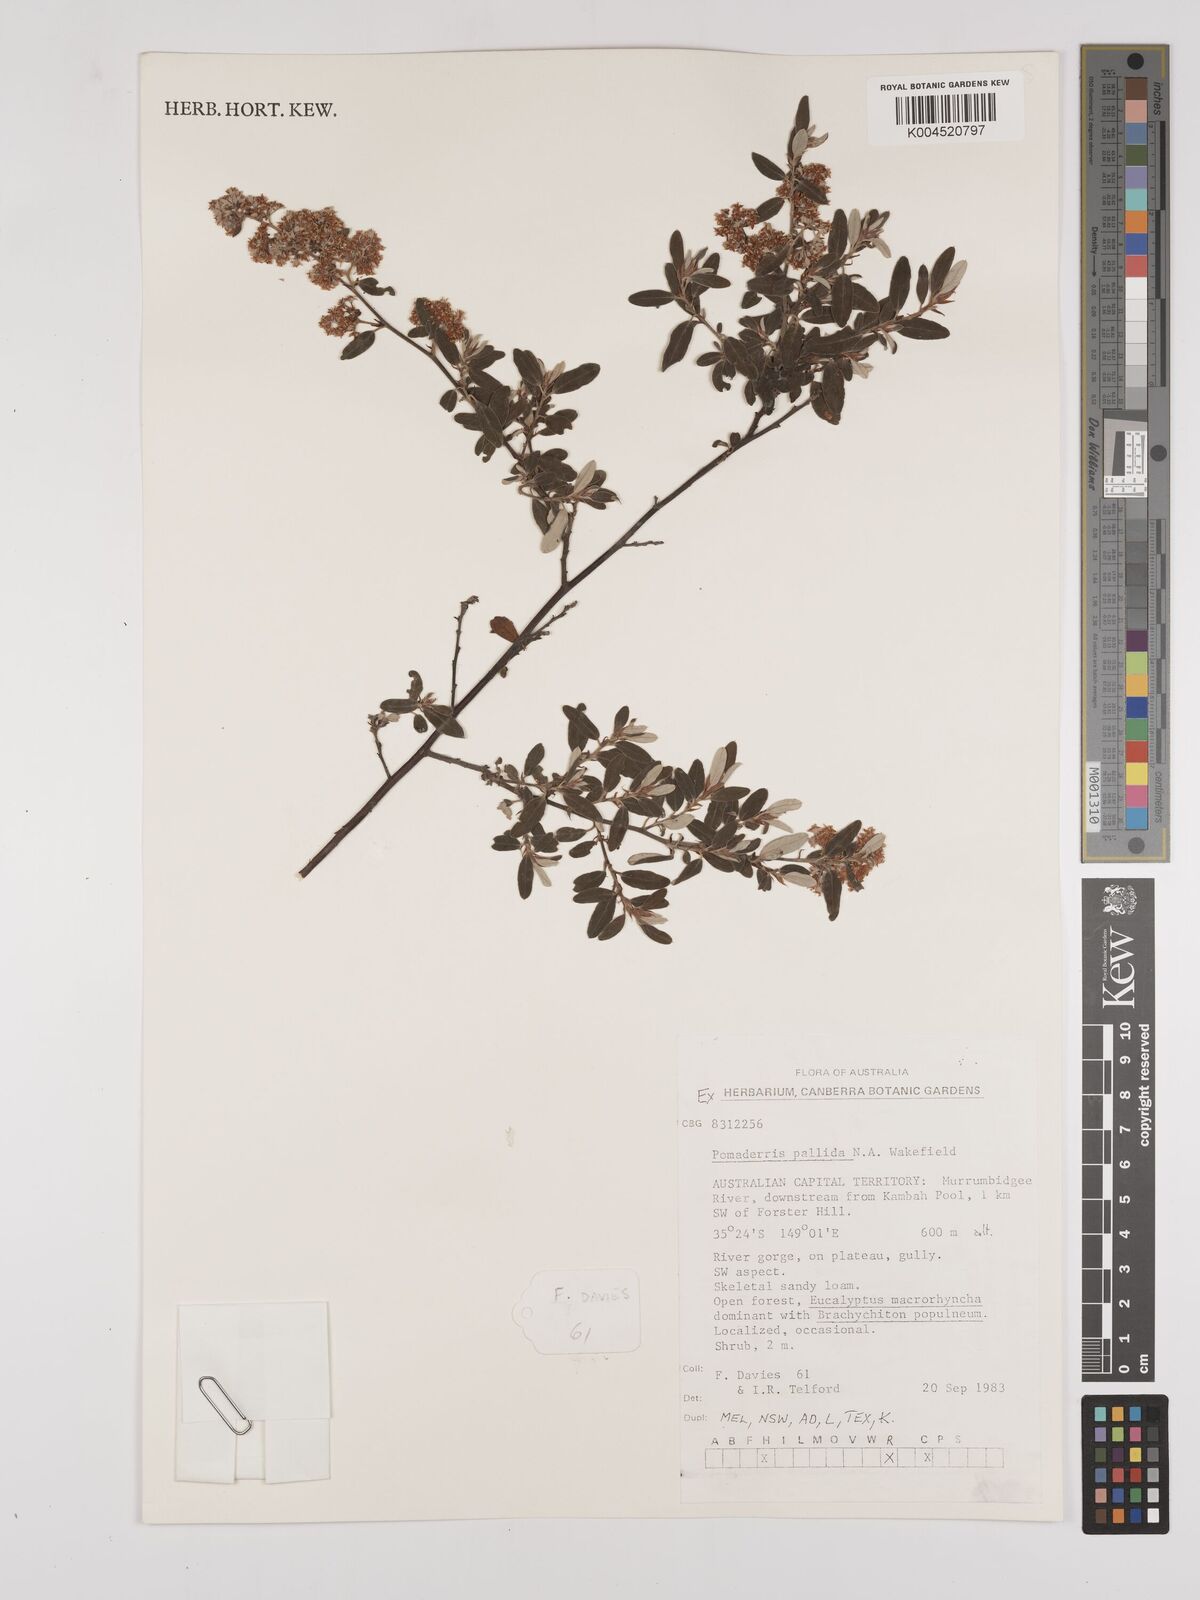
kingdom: Plantae
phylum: Tracheophyta
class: Magnoliopsida
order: Rosales
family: Rhamnaceae
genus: Pomaderris
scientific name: Pomaderris pallida
